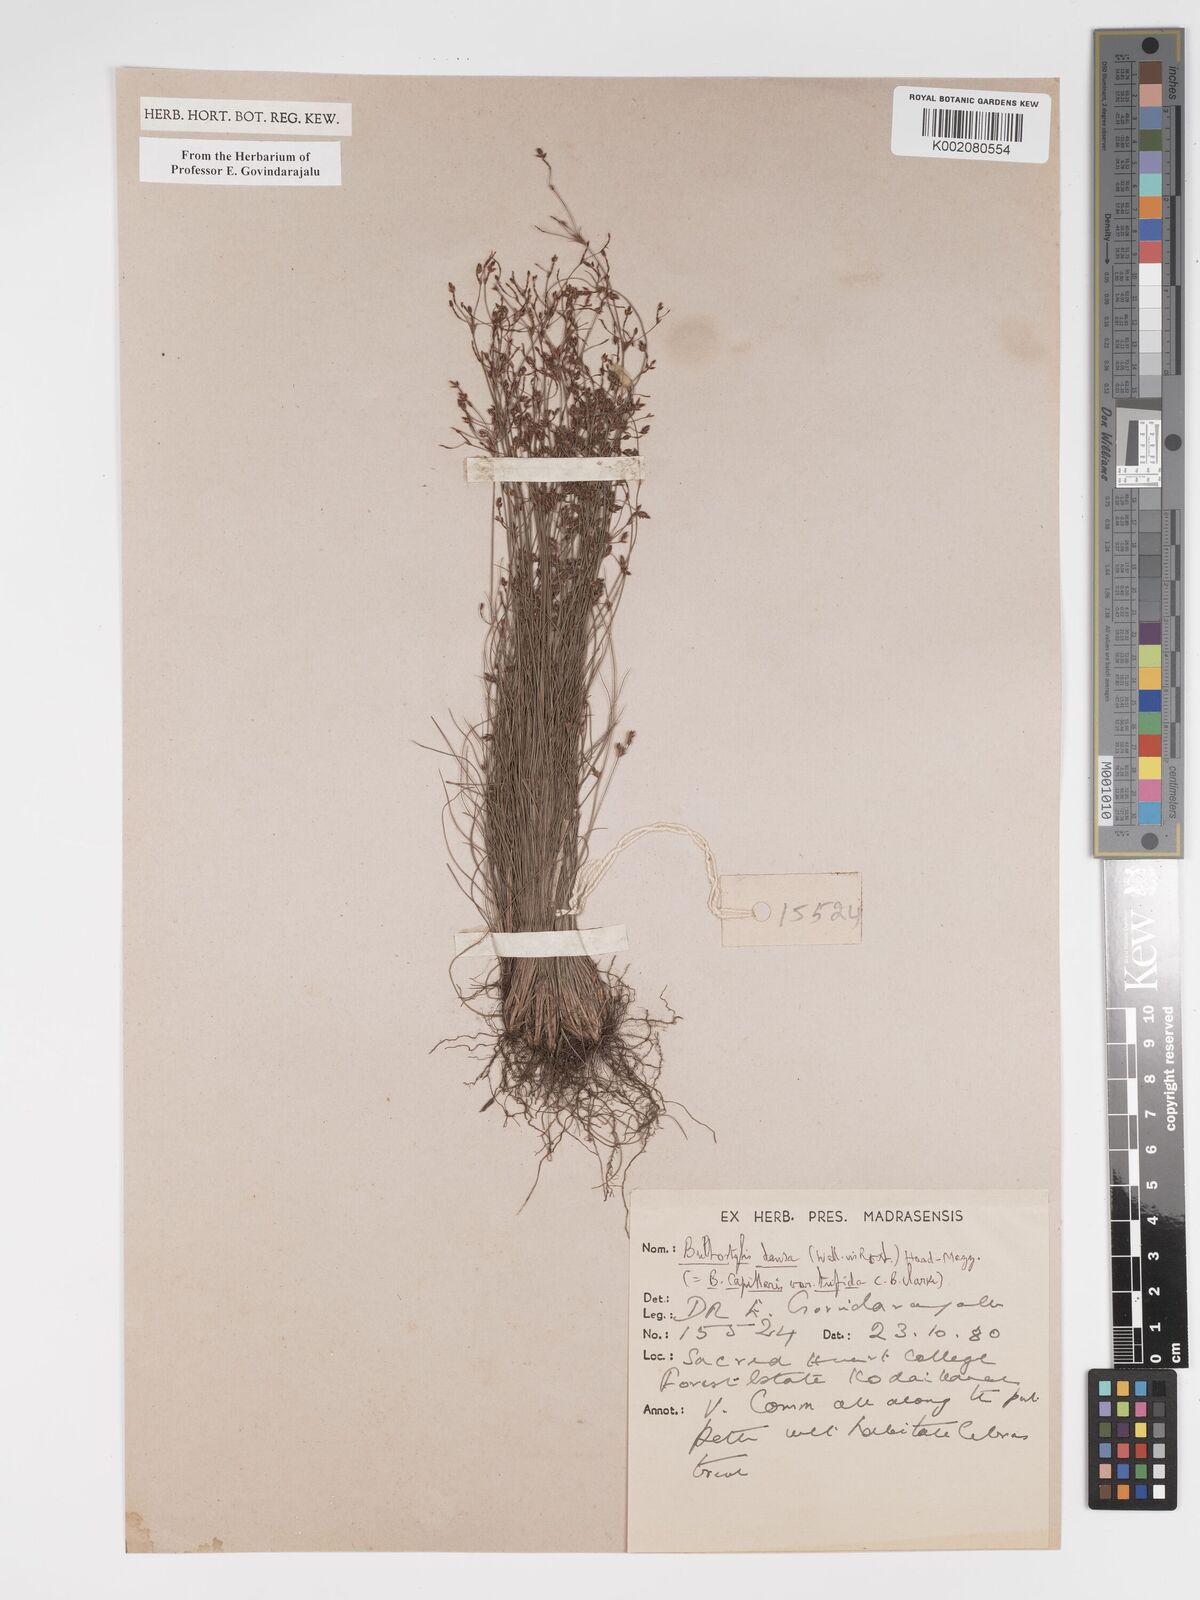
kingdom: Plantae
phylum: Tracheophyta
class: Liliopsida
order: Poales
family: Cyperaceae
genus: Bulbostylis
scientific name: Bulbostylis densa
